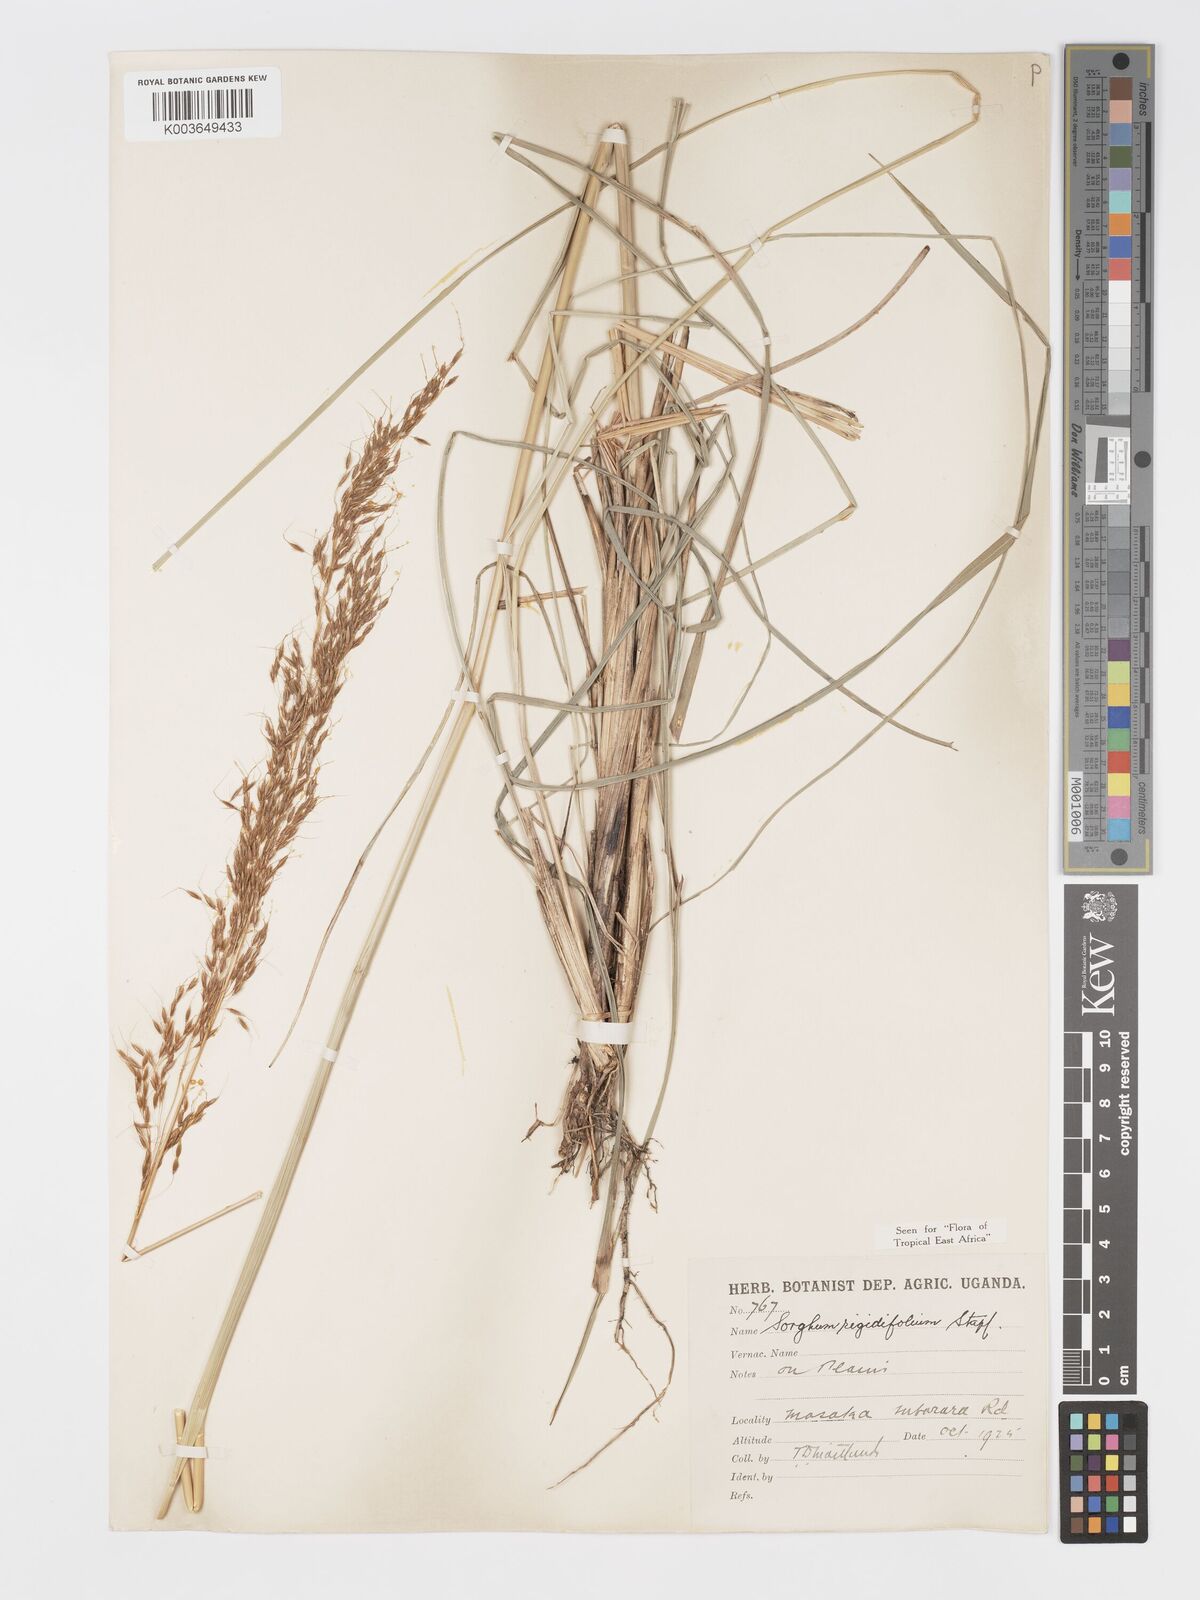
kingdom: Plantae
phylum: Tracheophyta
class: Liliopsida
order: Poales
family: Poaceae
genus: Sorghastrum
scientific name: Sorghastrum stipoides
